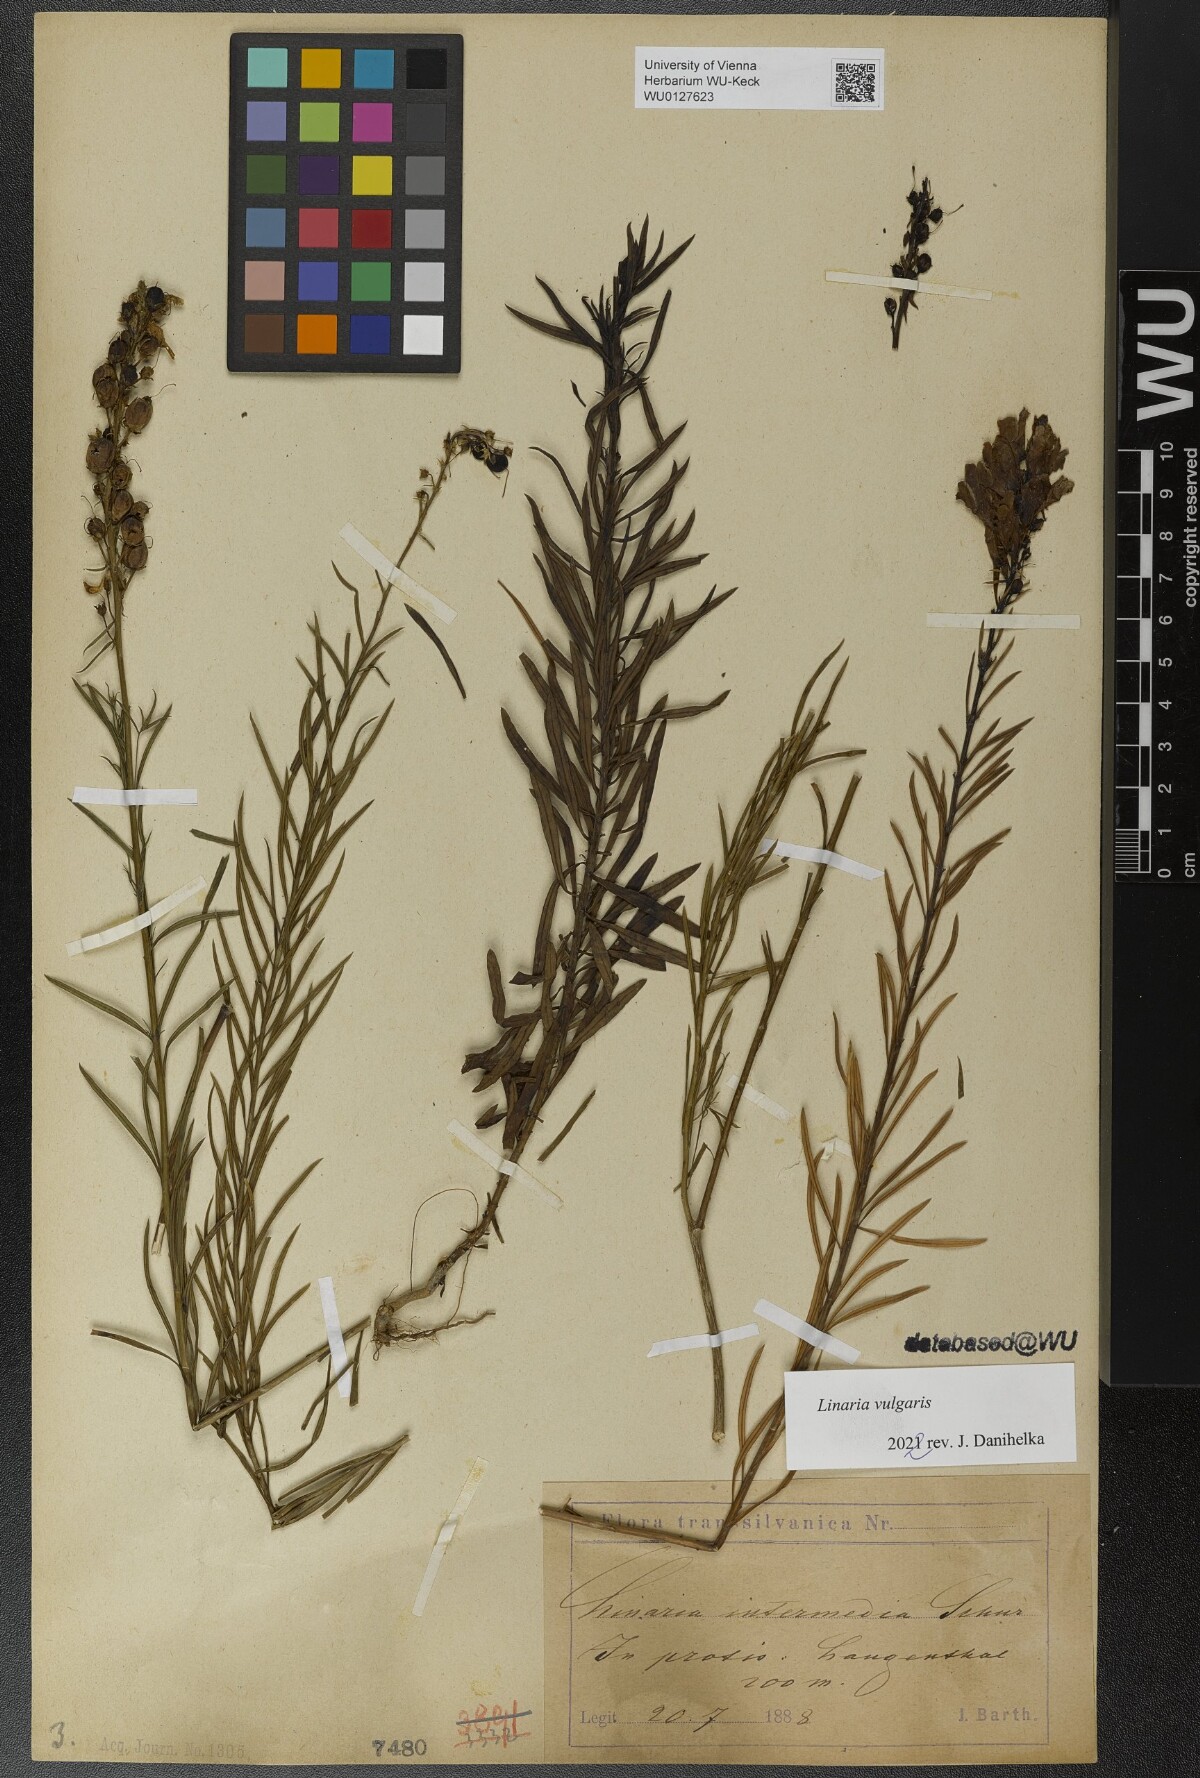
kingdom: Plantae
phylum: Tracheophyta
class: Magnoliopsida
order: Lamiales
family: Plantaginaceae
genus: Linaria
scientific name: Linaria vulgaris
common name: Butter and eggs
